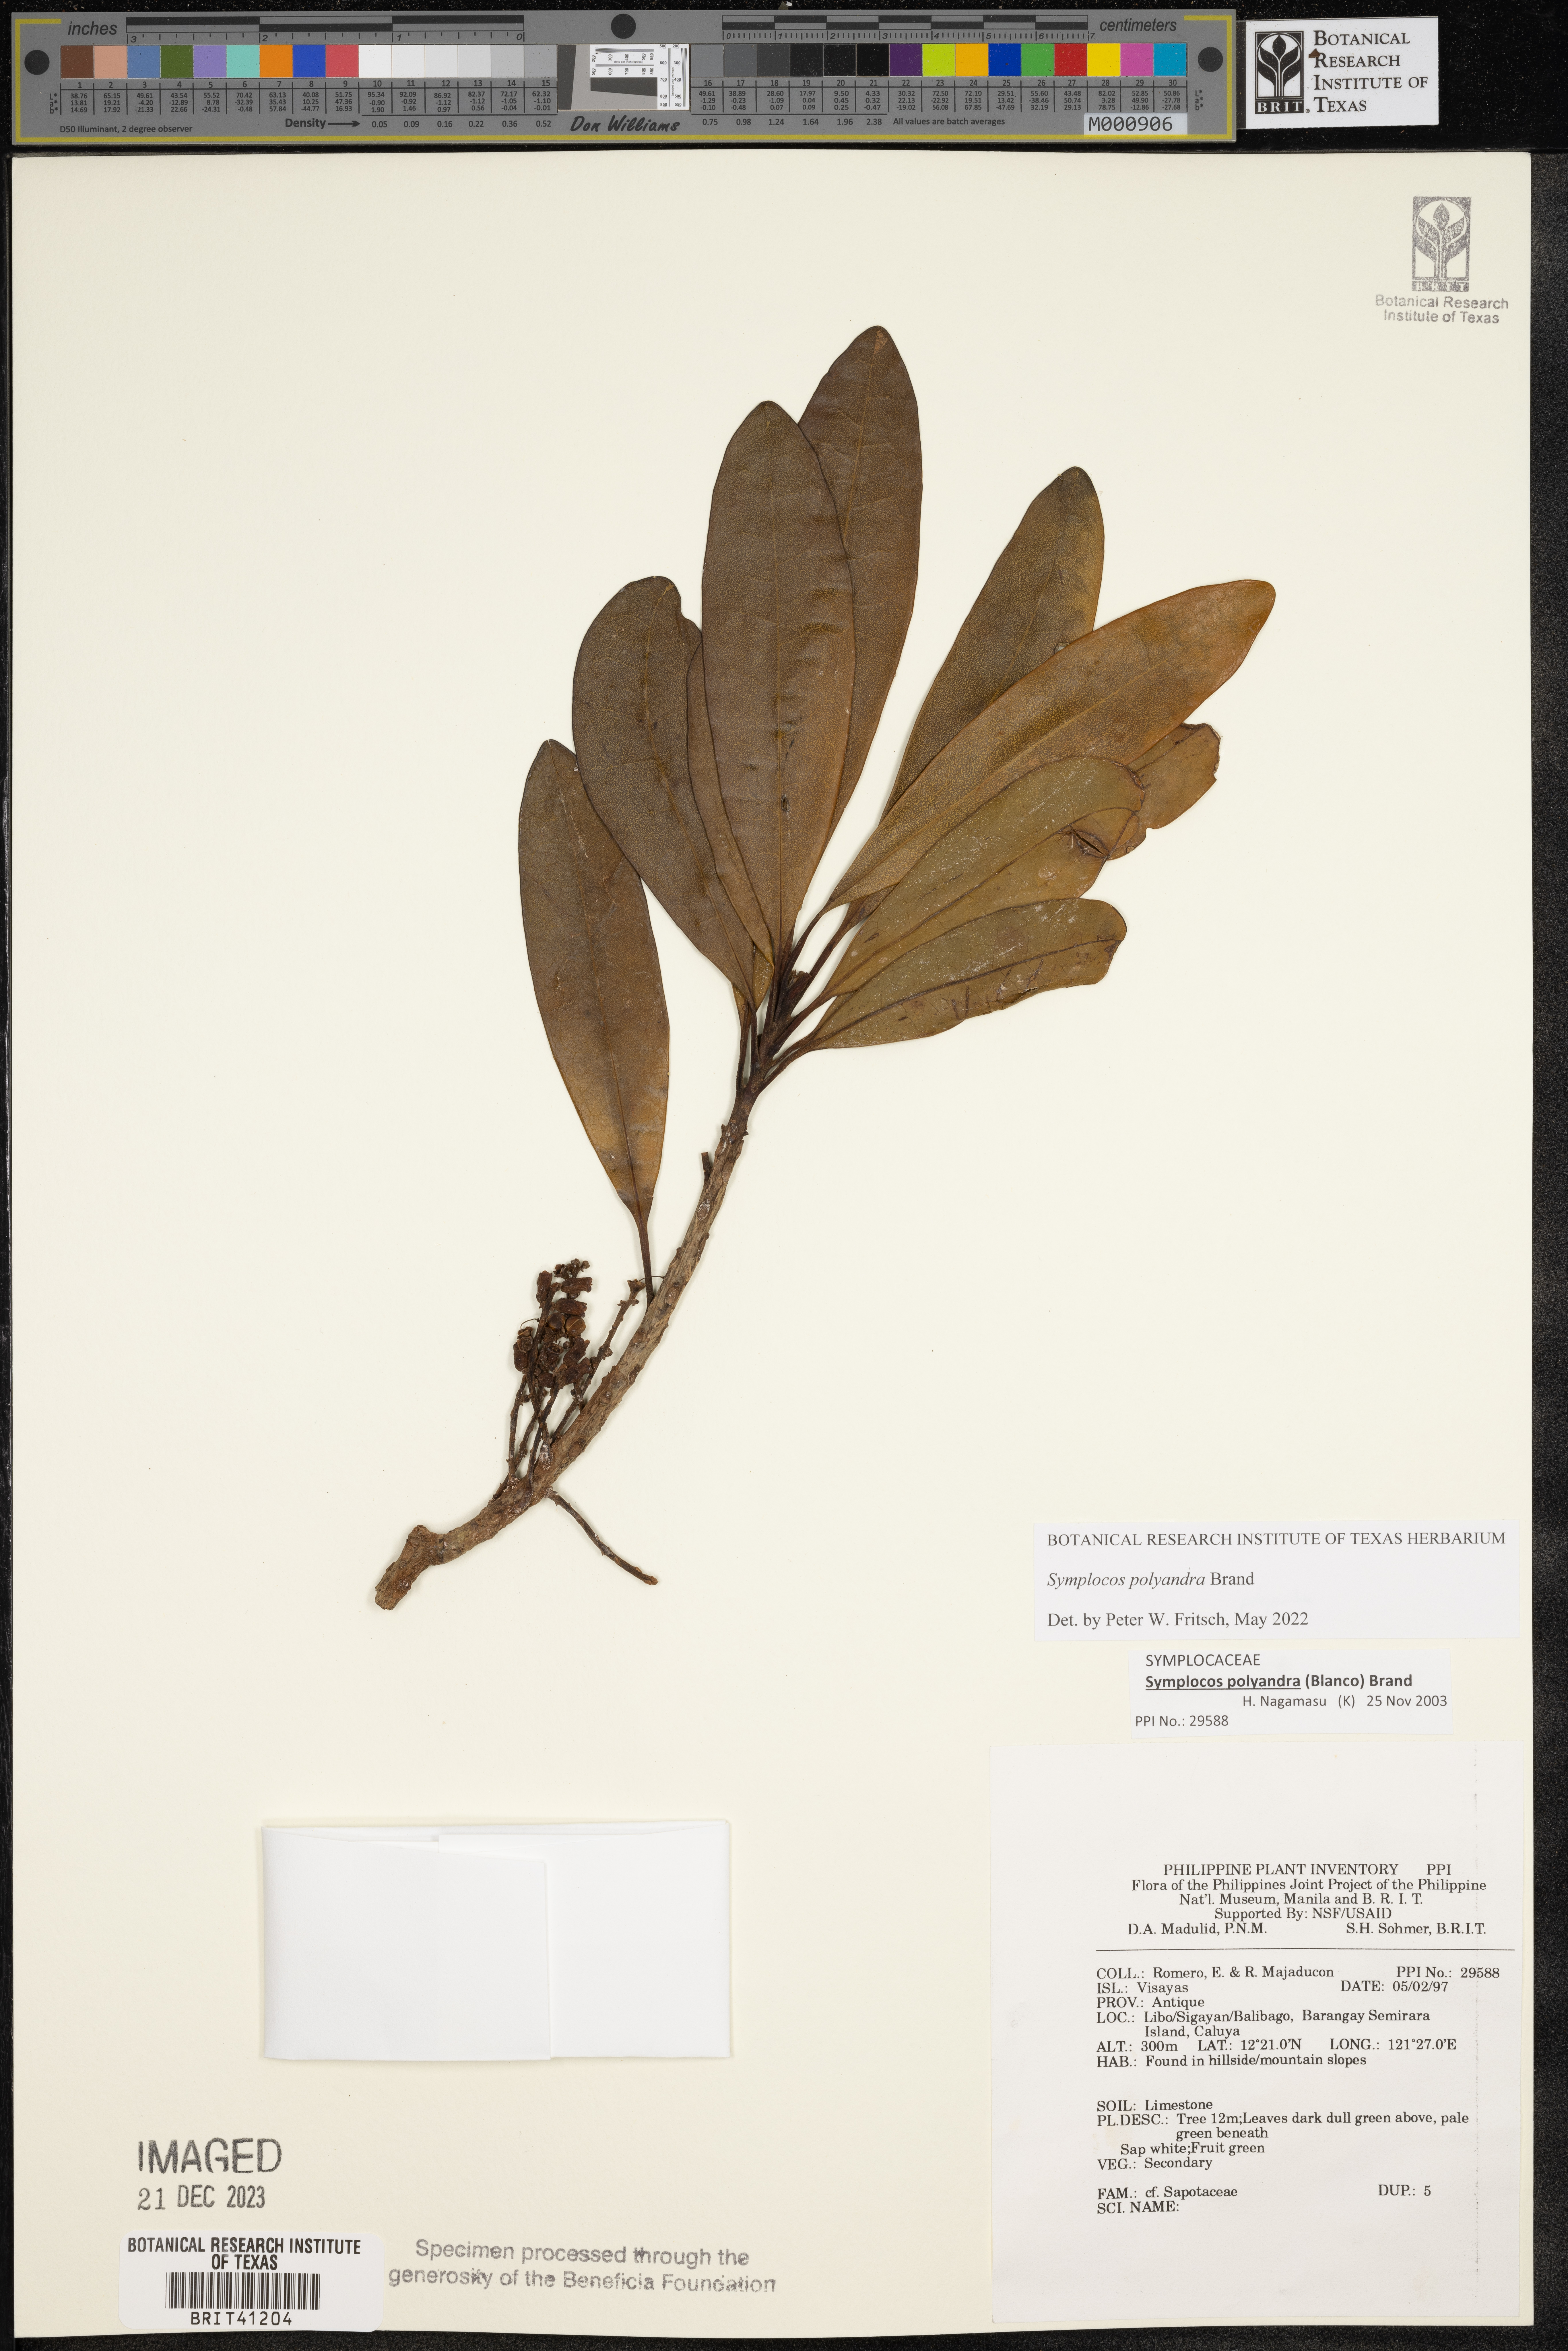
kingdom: Plantae
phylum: Tracheophyta
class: Magnoliopsida
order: Ericales
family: Sapotaceae
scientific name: Sapotaceae
